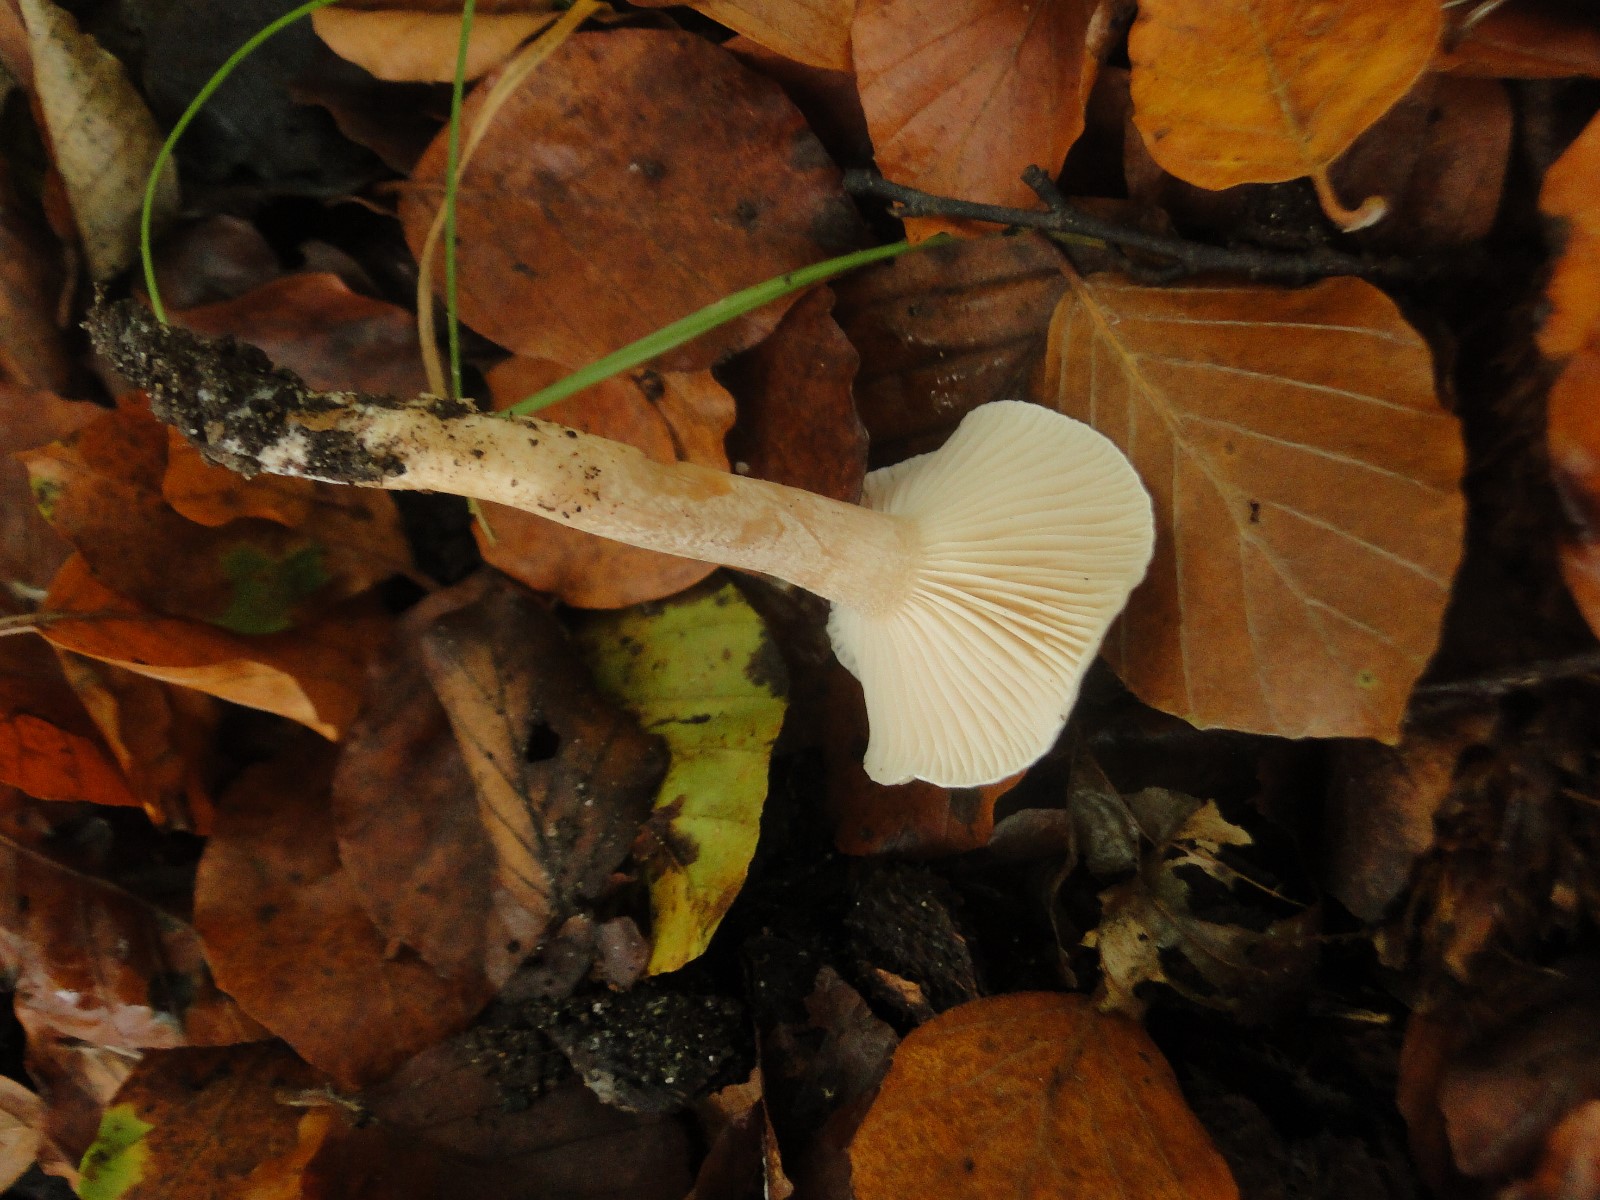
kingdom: Fungi
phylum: Basidiomycota
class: Agaricomycetes
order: Agaricales
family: Hygrophoraceae
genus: Hygrophorus
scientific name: Hygrophorus unicolor
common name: orangeøjet sneglehat
